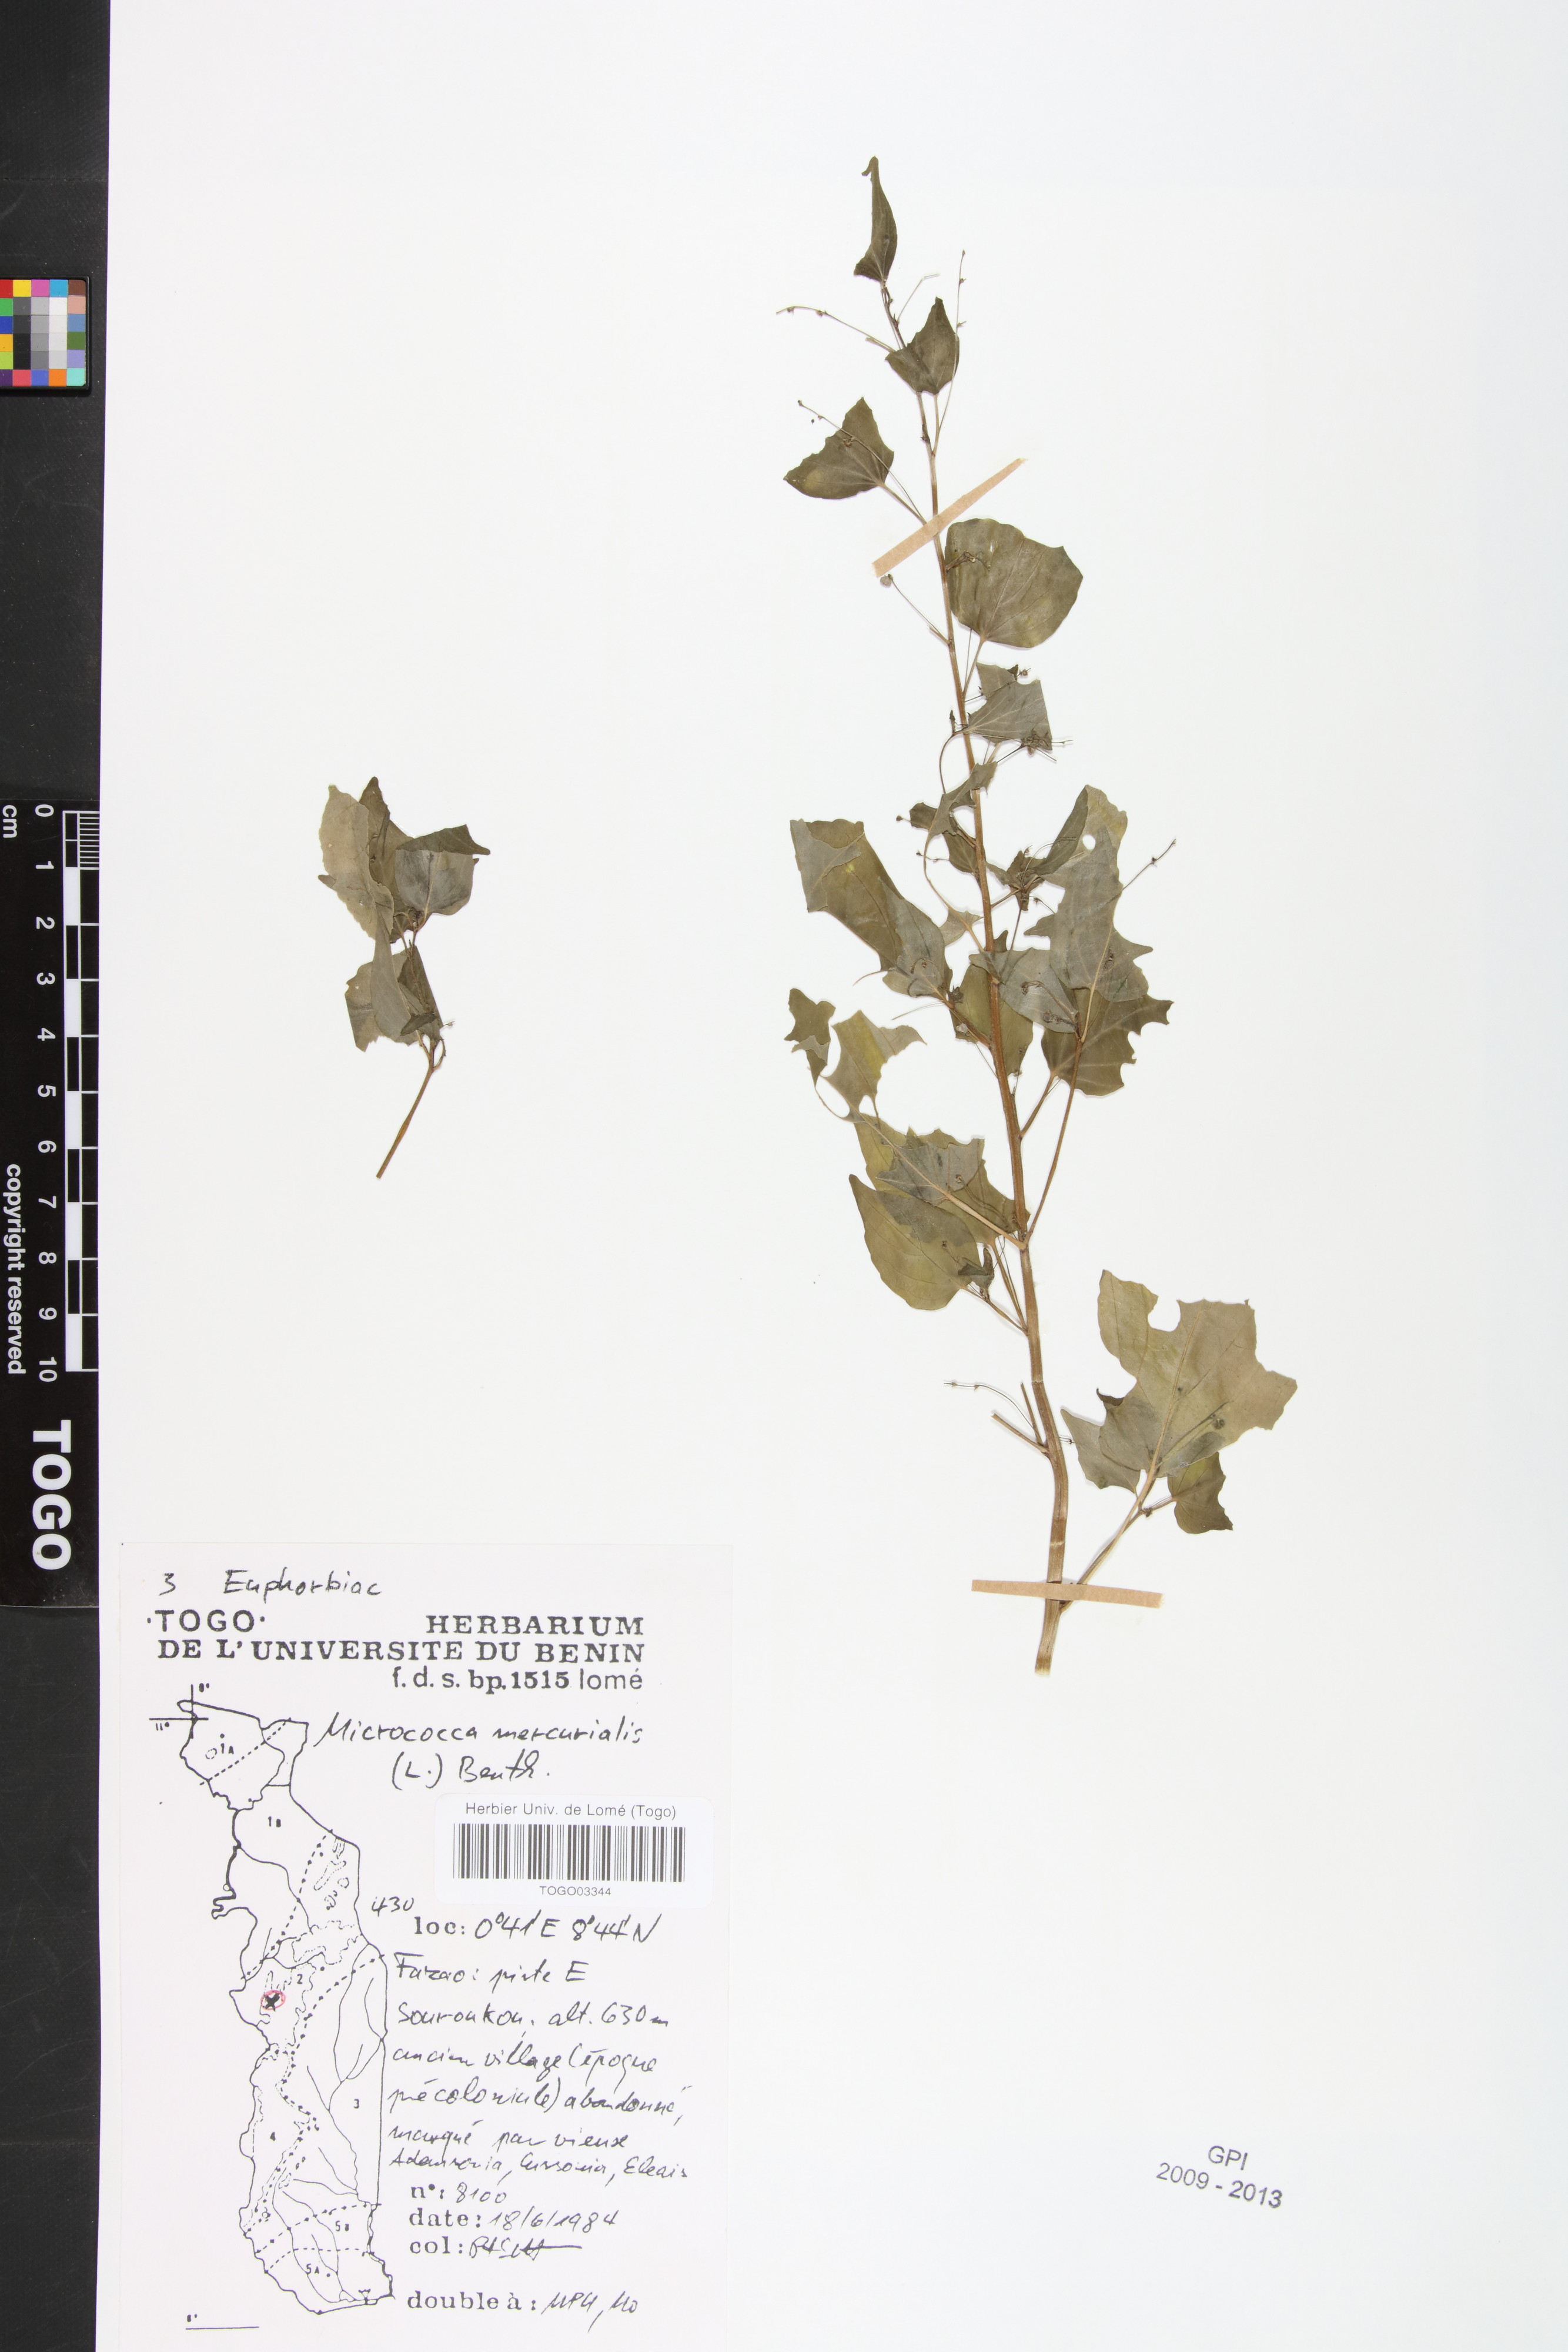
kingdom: Plantae
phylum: Tracheophyta
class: Magnoliopsida
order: Malpighiales
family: Euphorbiaceae
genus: Micrococca
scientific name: Micrococca mercurialis
